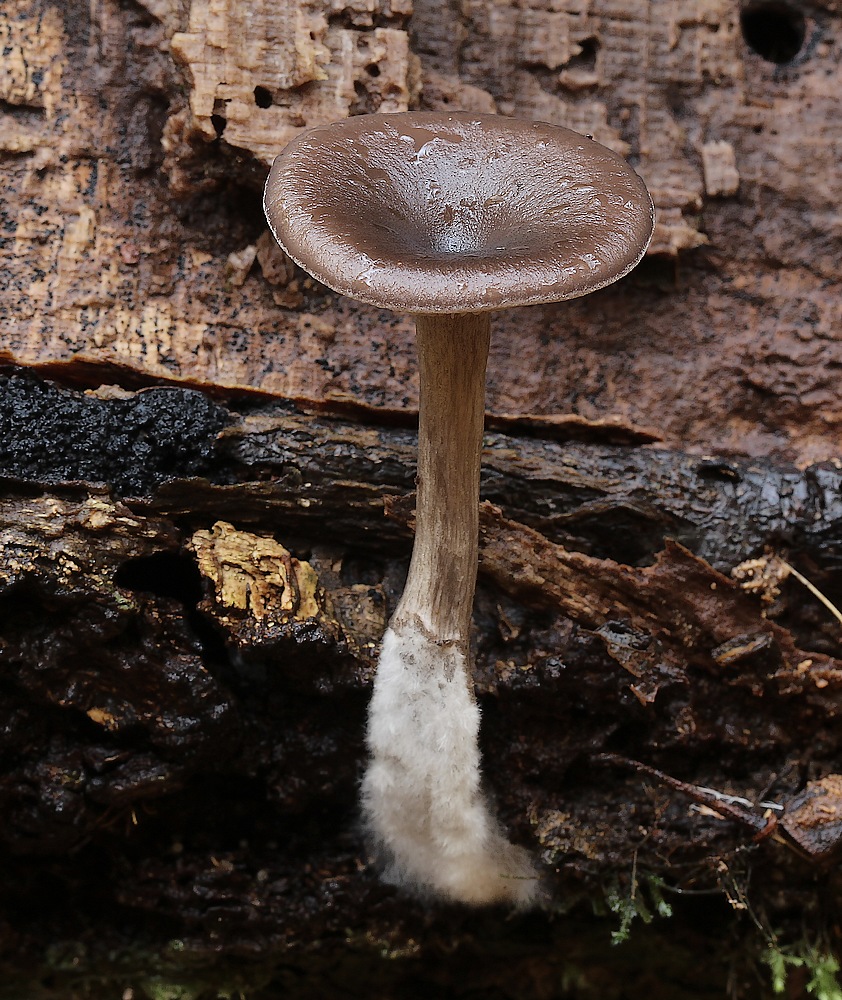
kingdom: Fungi
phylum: Basidiomycota
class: Agaricomycetes
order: Agaricales
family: Pseudoclitocybaceae
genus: Pseudoclitocybe
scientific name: Pseudoclitocybe cyathiformis
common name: almindelig bægertragthat
